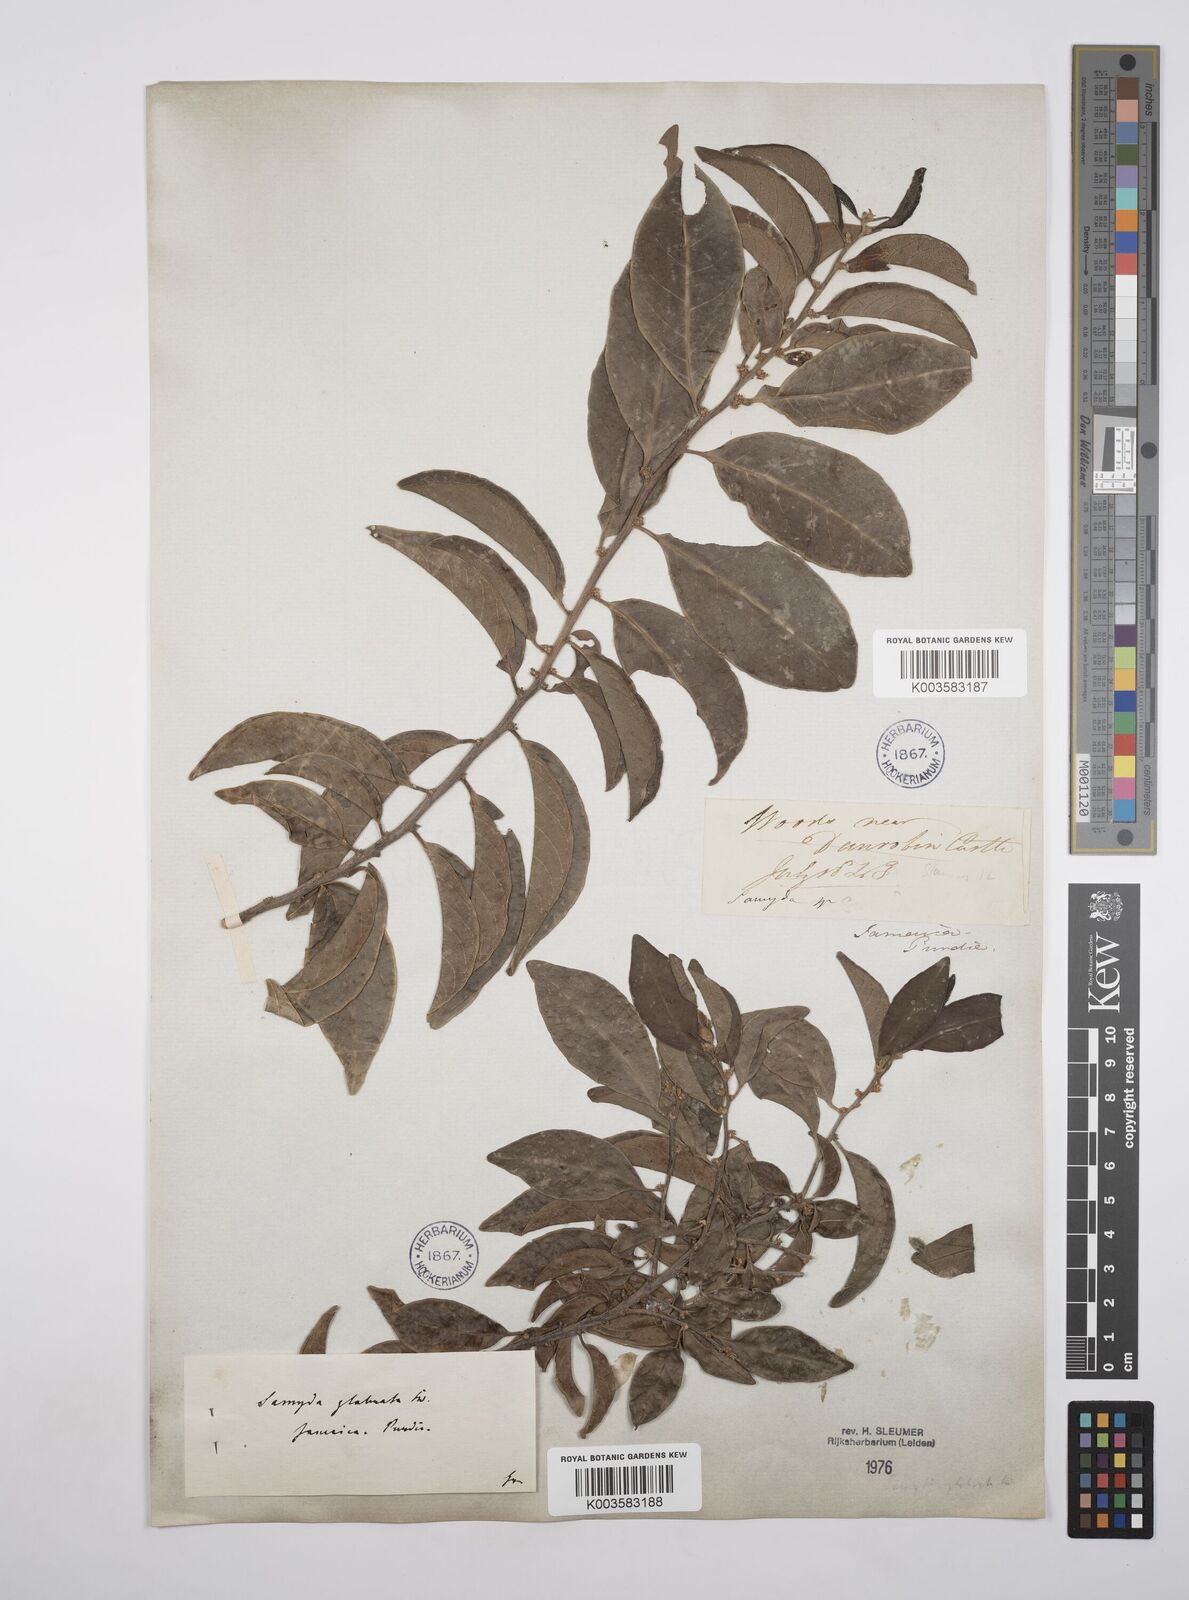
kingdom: Plantae
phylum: Tracheophyta
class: Magnoliopsida
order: Malpighiales
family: Salicaceae
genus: Casearia
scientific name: Casearia kigeri
